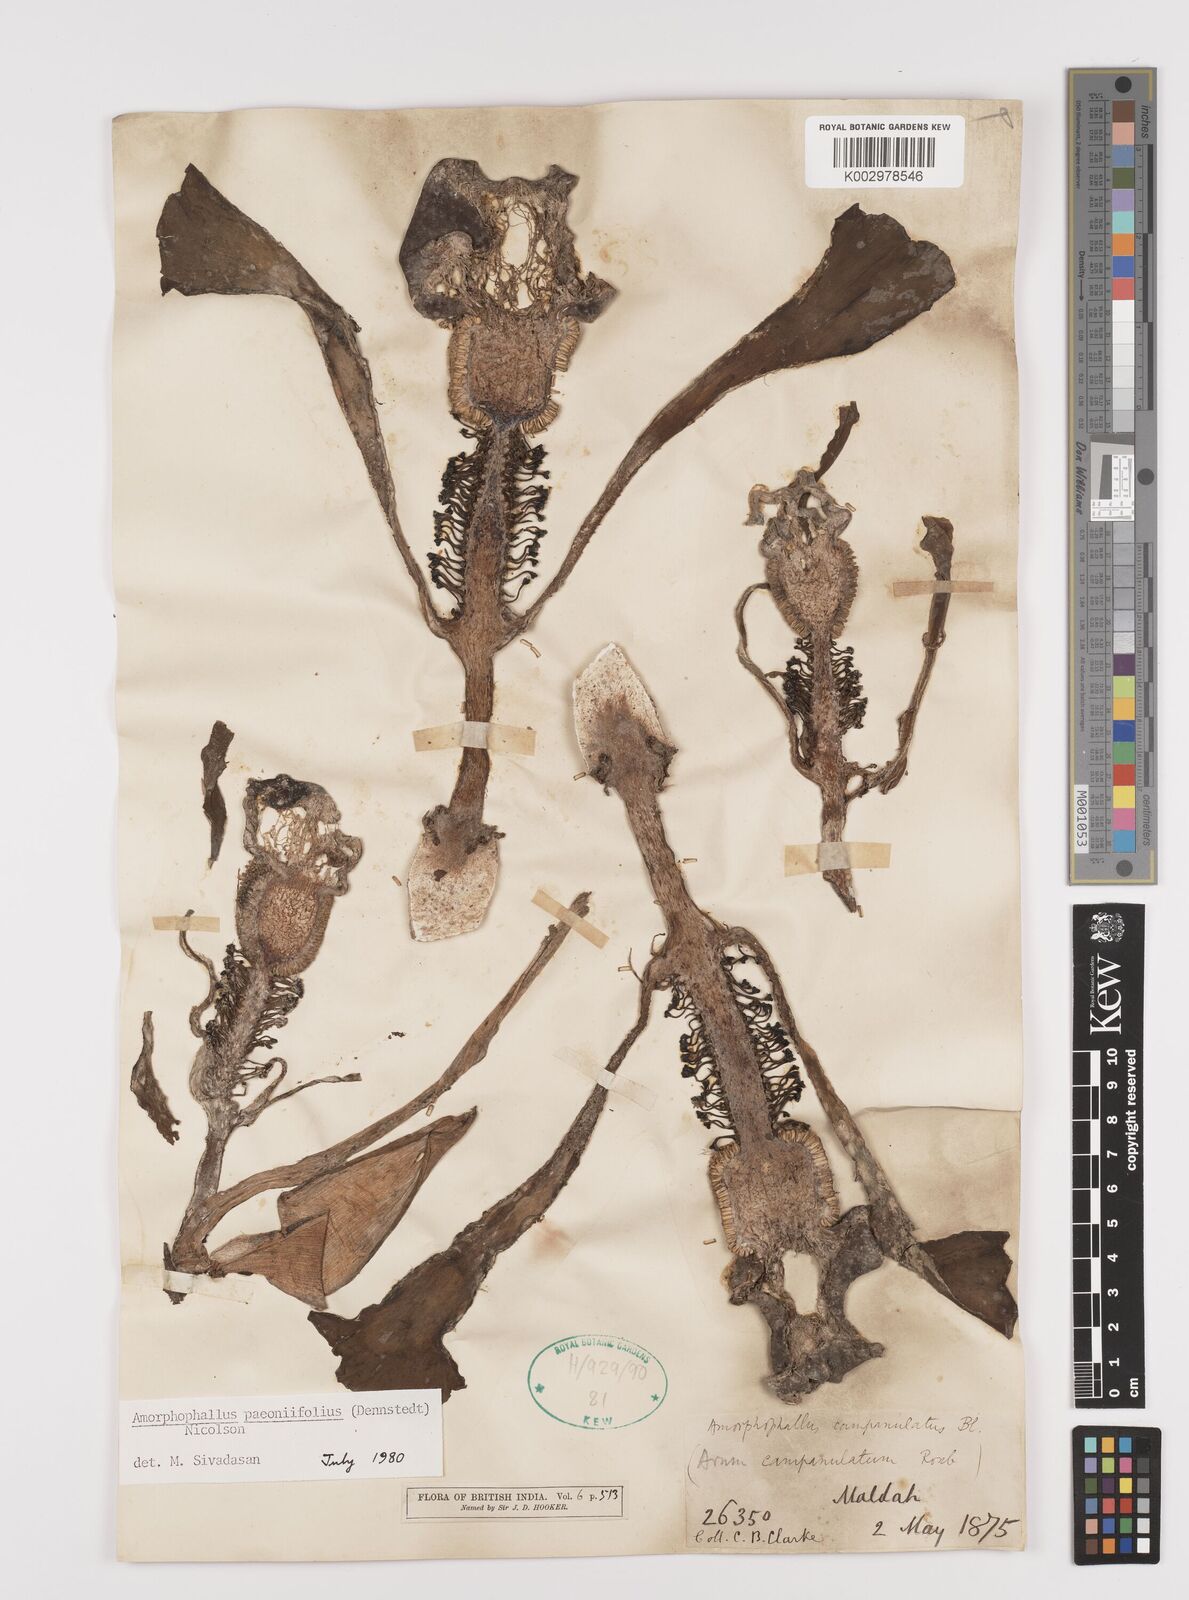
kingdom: Plantae
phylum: Tracheophyta
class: Liliopsida
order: Alismatales
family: Araceae
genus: Amorphophallus
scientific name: Amorphophallus paeoniifolius
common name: Telinga-potato
